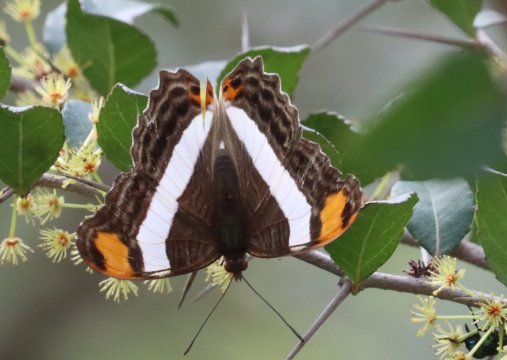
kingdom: Animalia
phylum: Arthropoda
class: Insecta
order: Lepidoptera
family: Nymphalidae
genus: Limenitis
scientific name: Limenitis fessonia
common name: Band-celled Sister
